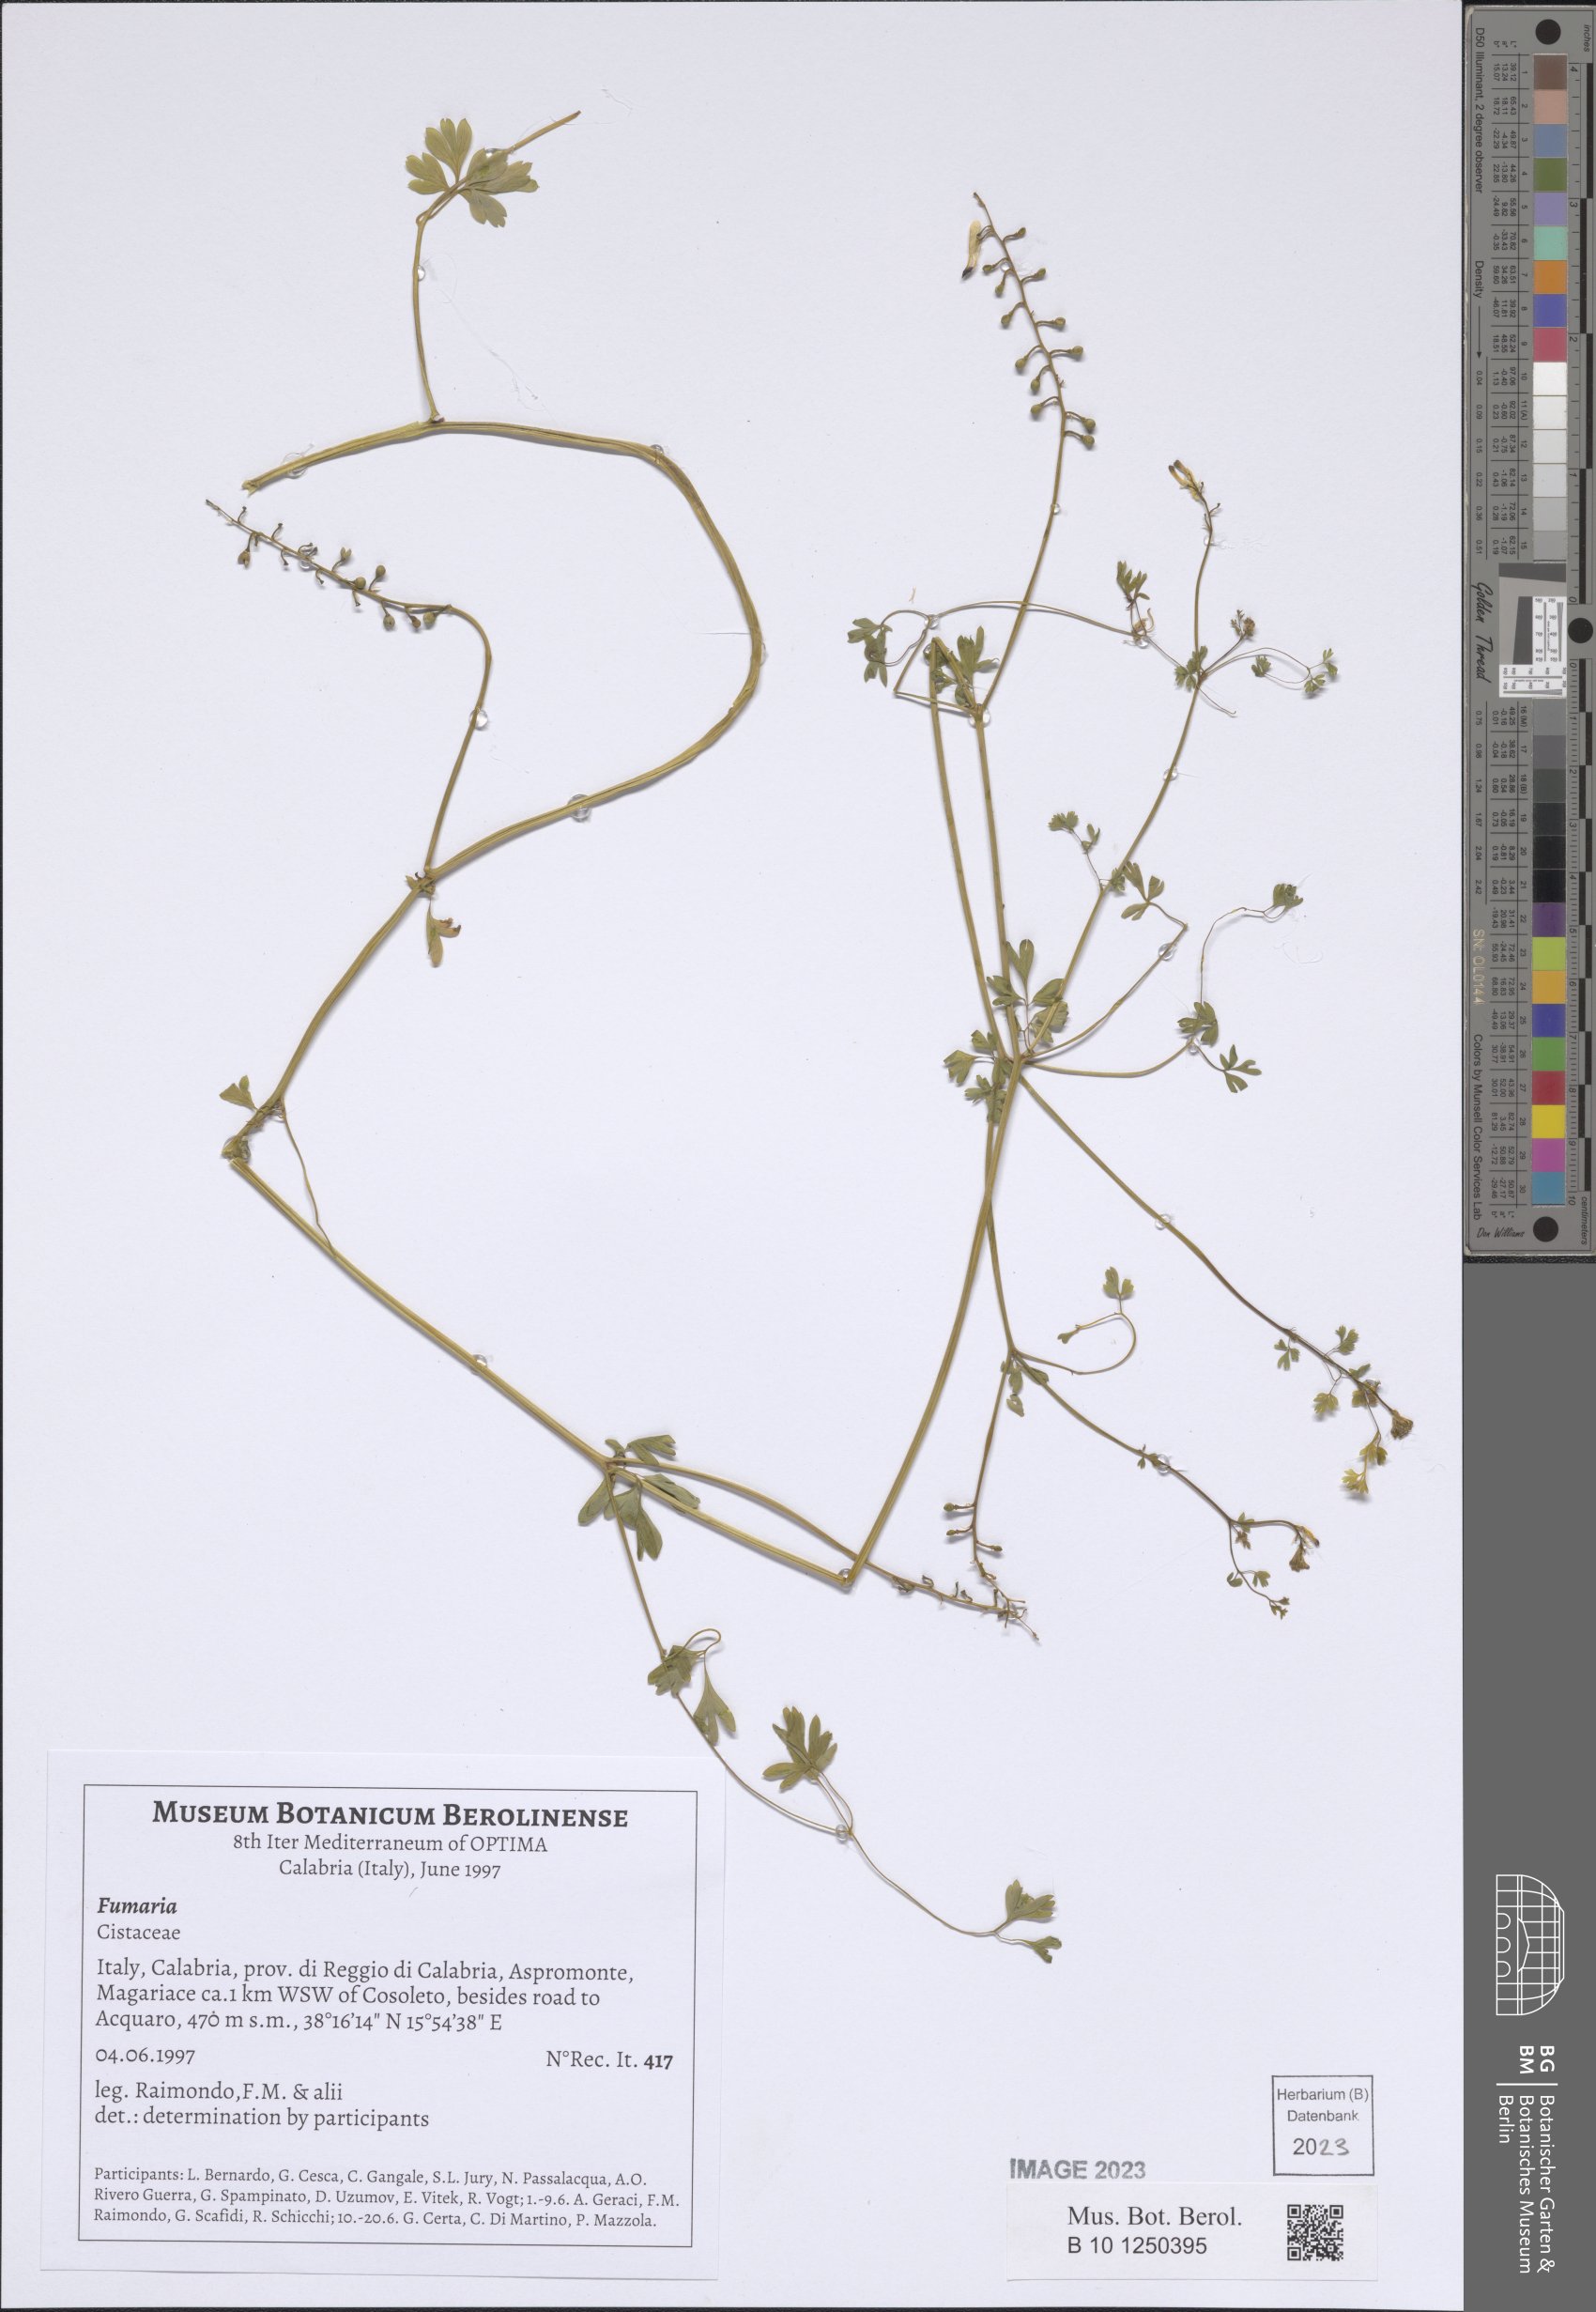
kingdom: Plantae
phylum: Tracheophyta
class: Magnoliopsida
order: Ranunculales
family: Papaveraceae
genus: Fumaria
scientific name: Fumaria
